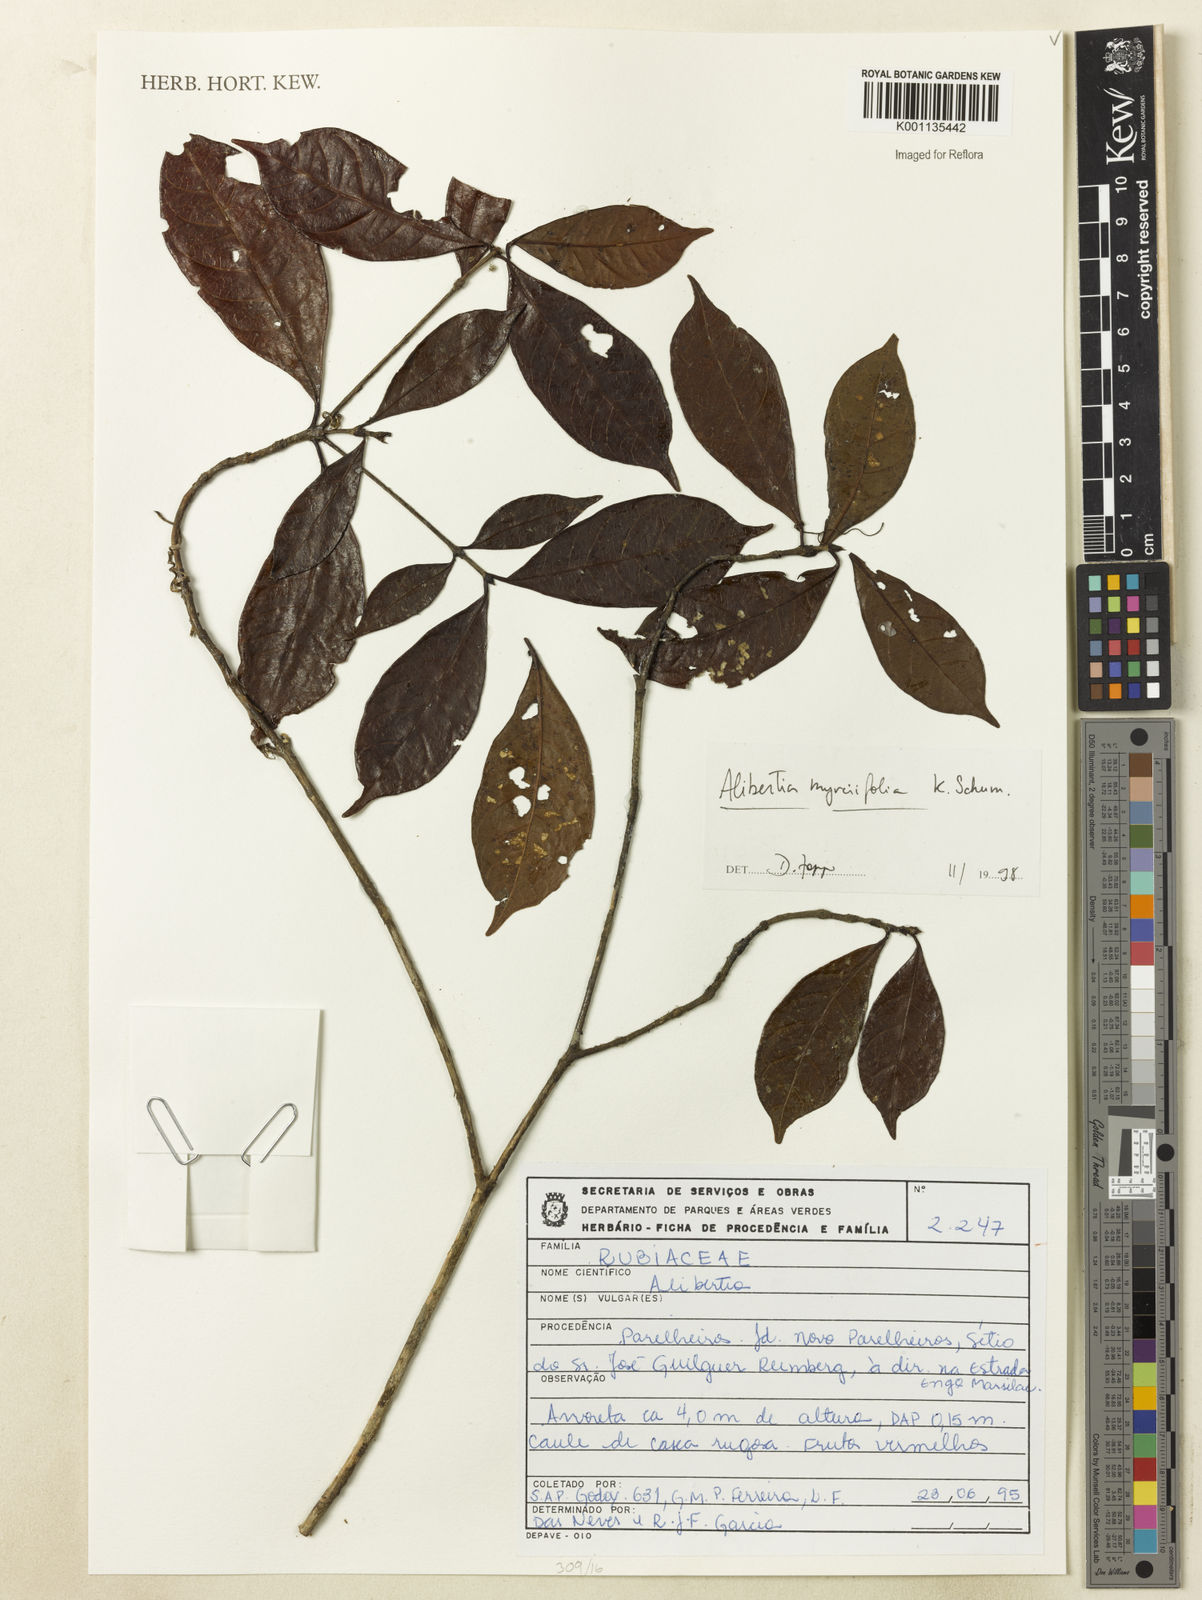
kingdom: Plantae
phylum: Tracheophyta
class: Magnoliopsida
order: Gentianales
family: Rubiaceae
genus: Cordiera
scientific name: Cordiera myrciifolia
